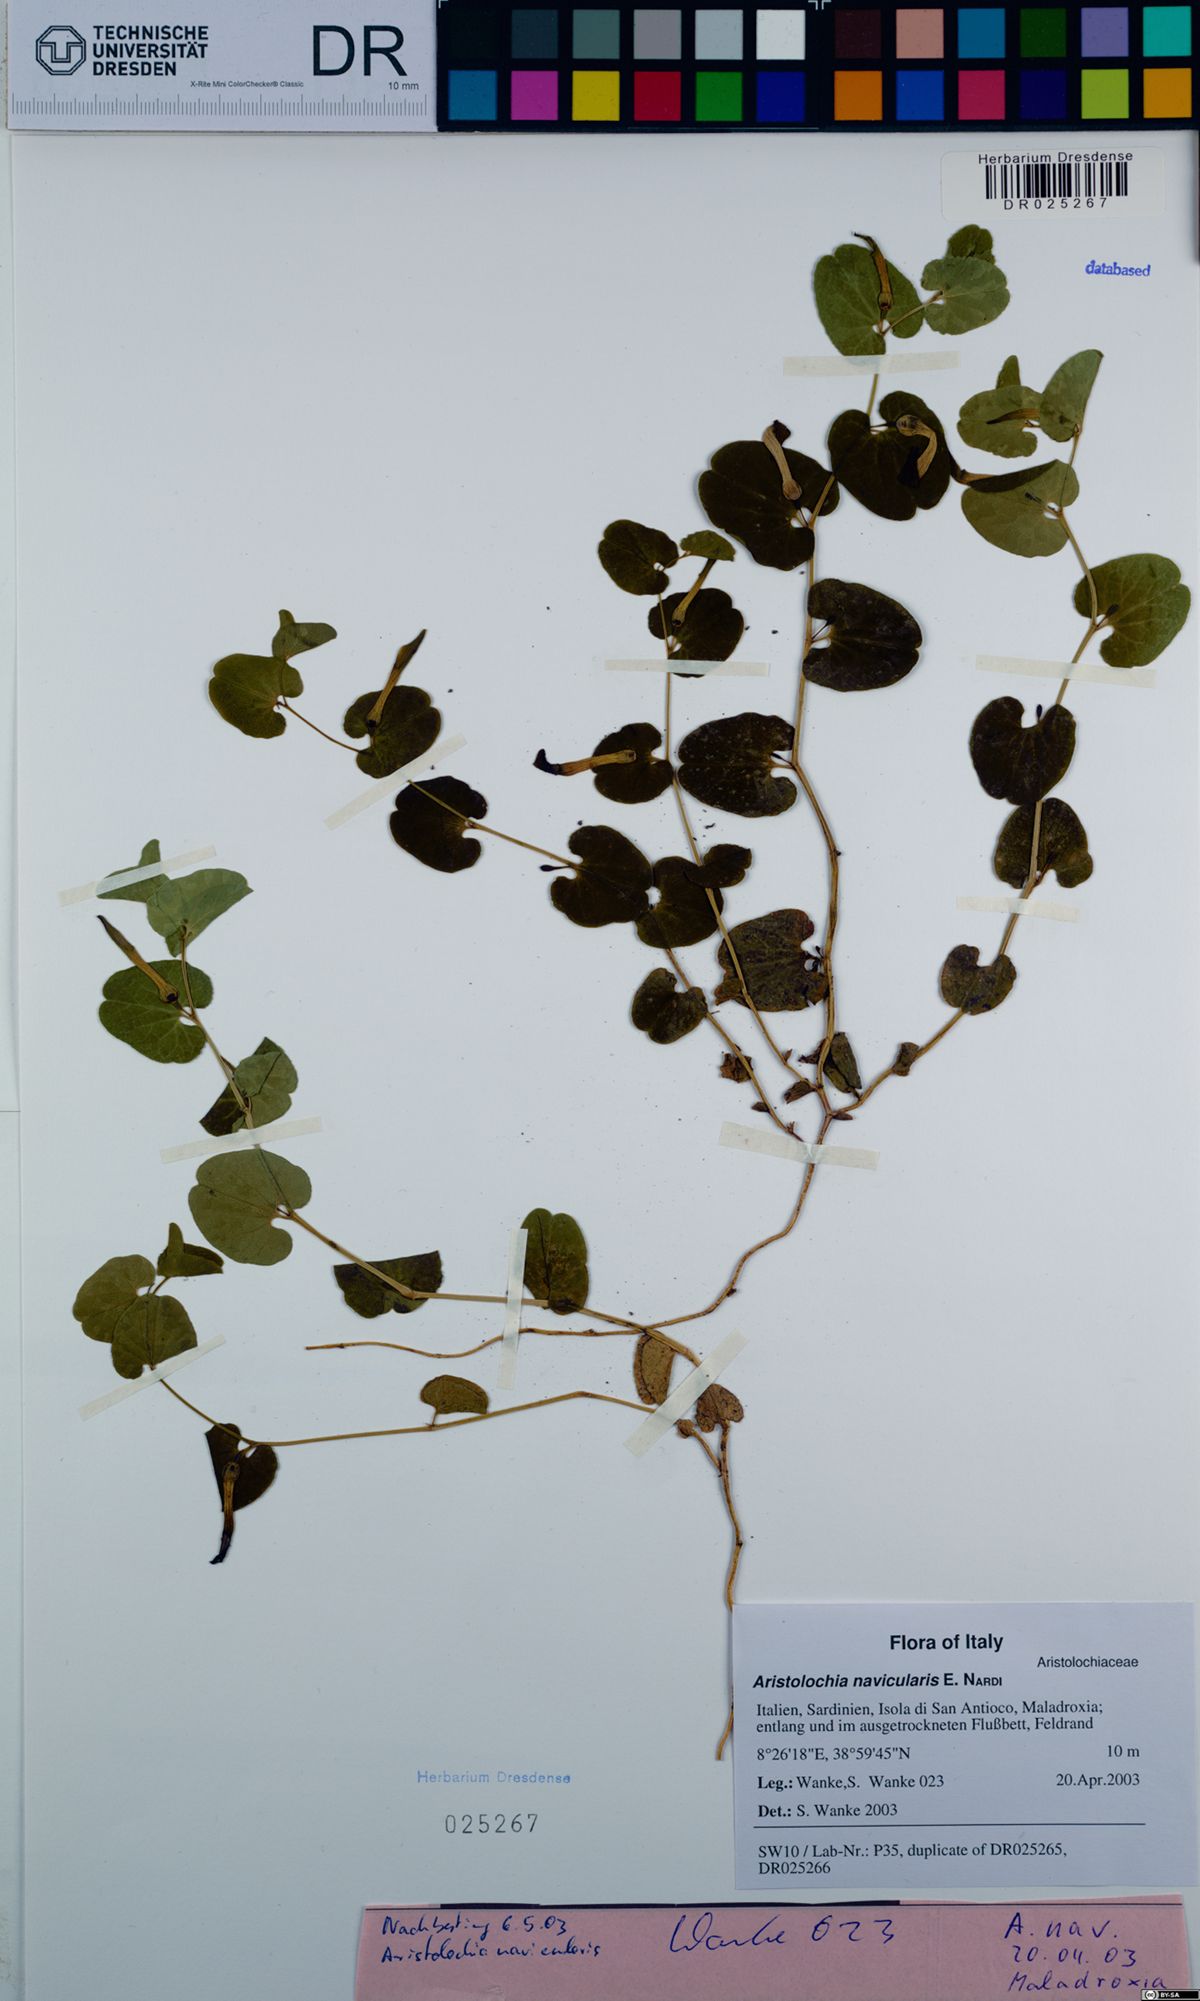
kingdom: Plantae
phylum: Tracheophyta
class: Magnoliopsida
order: Piperales
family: Aristolochiaceae
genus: Aristolochia
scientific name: Aristolochia navicularis
